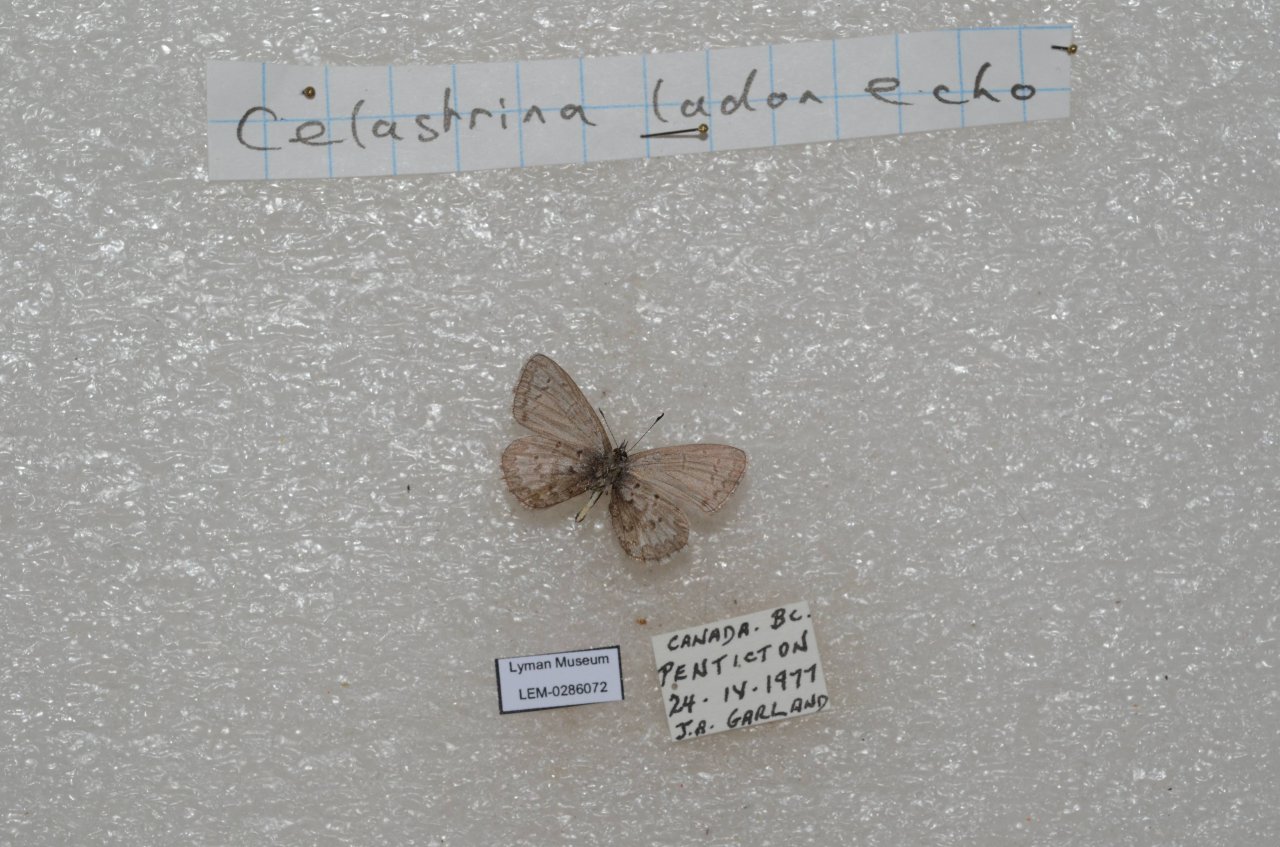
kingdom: Animalia
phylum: Arthropoda
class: Insecta
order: Lepidoptera
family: Lycaenidae
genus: Celastrina
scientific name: Celastrina
